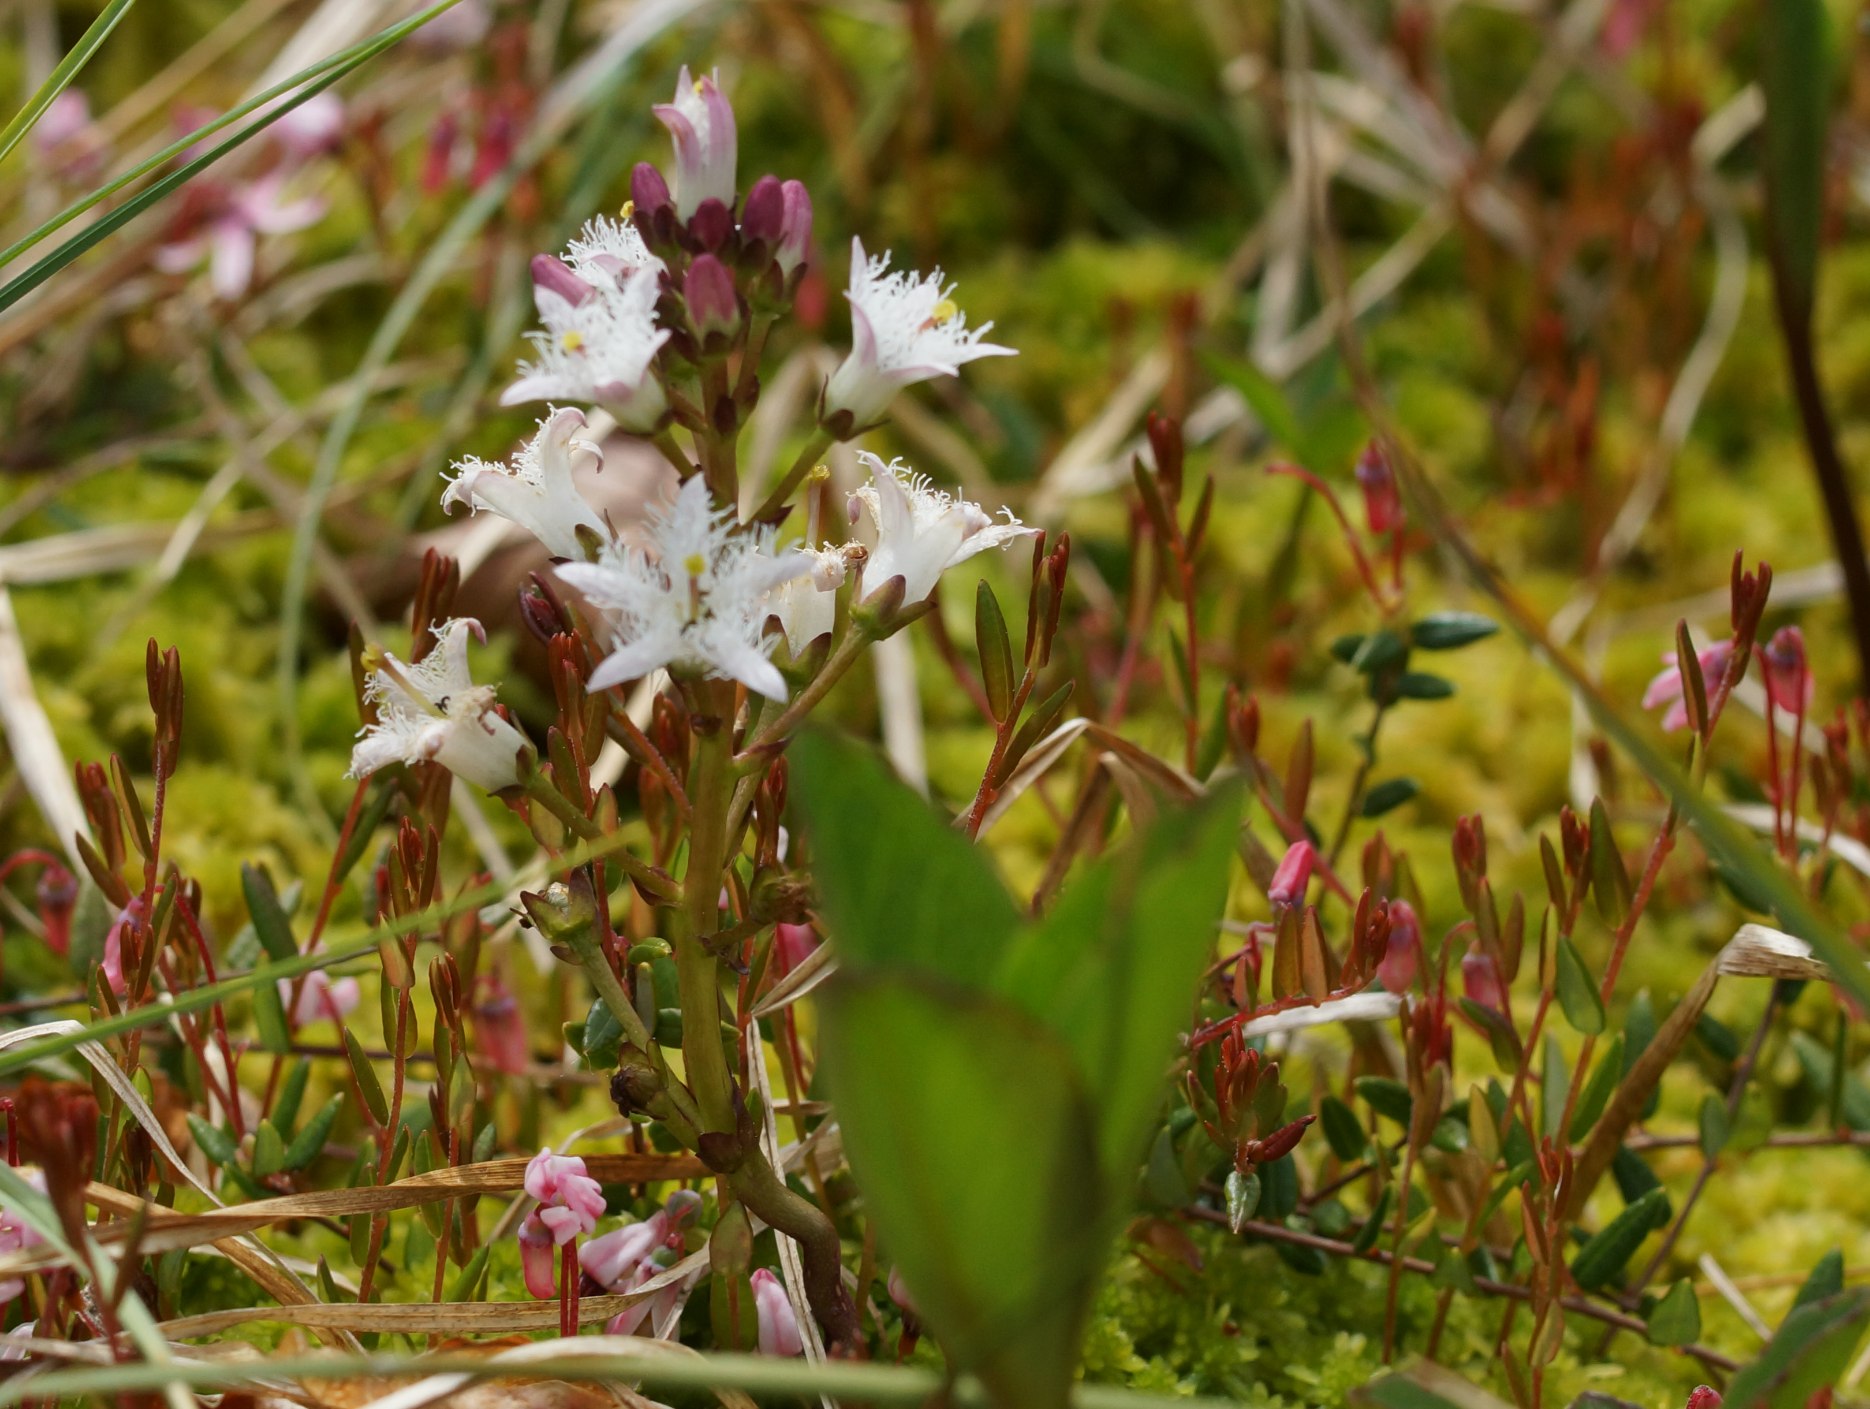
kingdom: Plantae
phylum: Tracheophyta
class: Magnoliopsida
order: Asterales
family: Menyanthaceae
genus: Menyanthes
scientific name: Menyanthes trifoliata
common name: Bukkeblad
